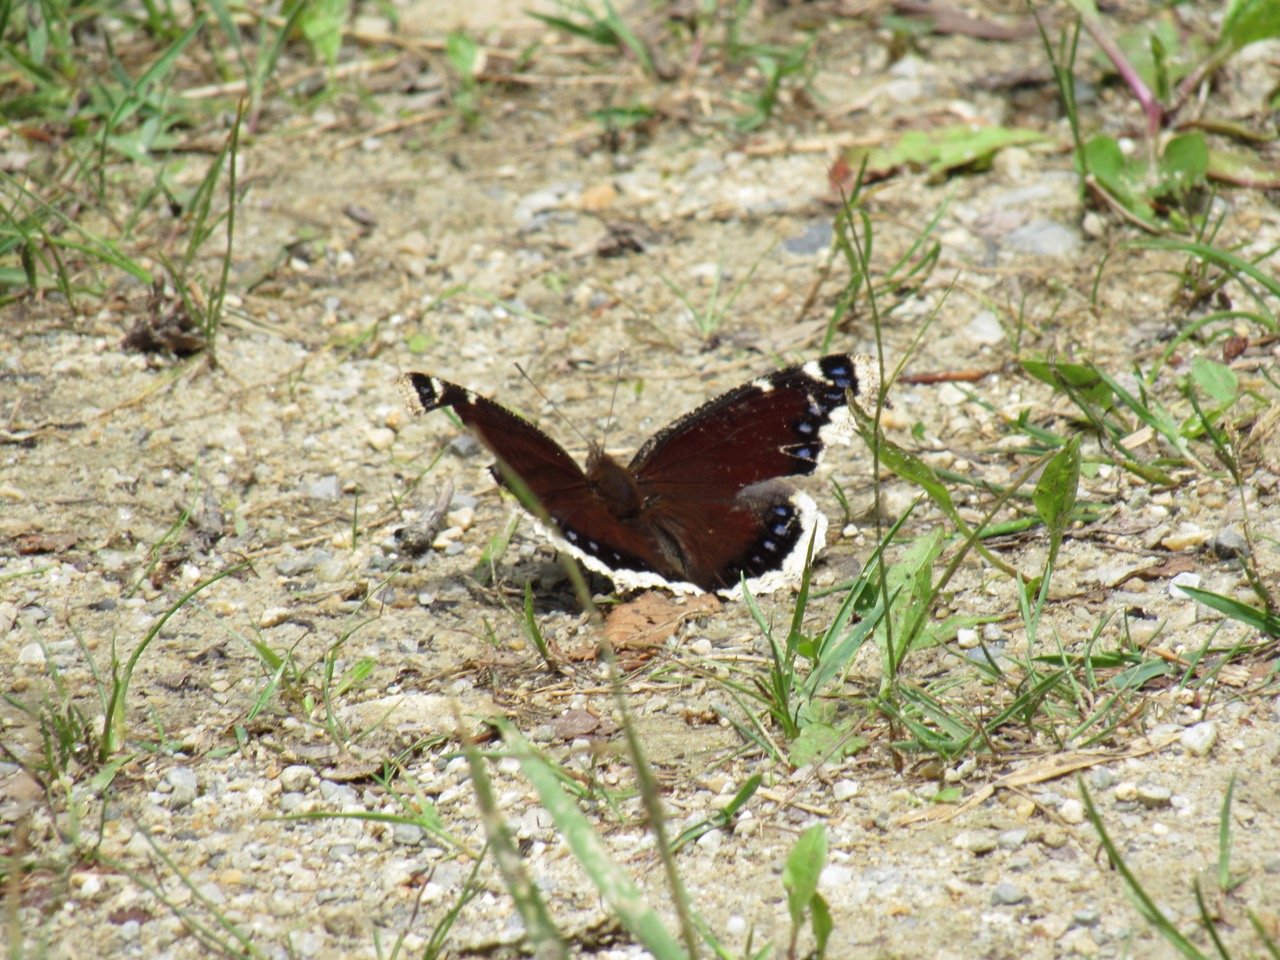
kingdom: Animalia
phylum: Arthropoda
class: Insecta
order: Lepidoptera
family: Nymphalidae
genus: Nymphalis
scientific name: Nymphalis antiopa
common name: Mourning Cloak
